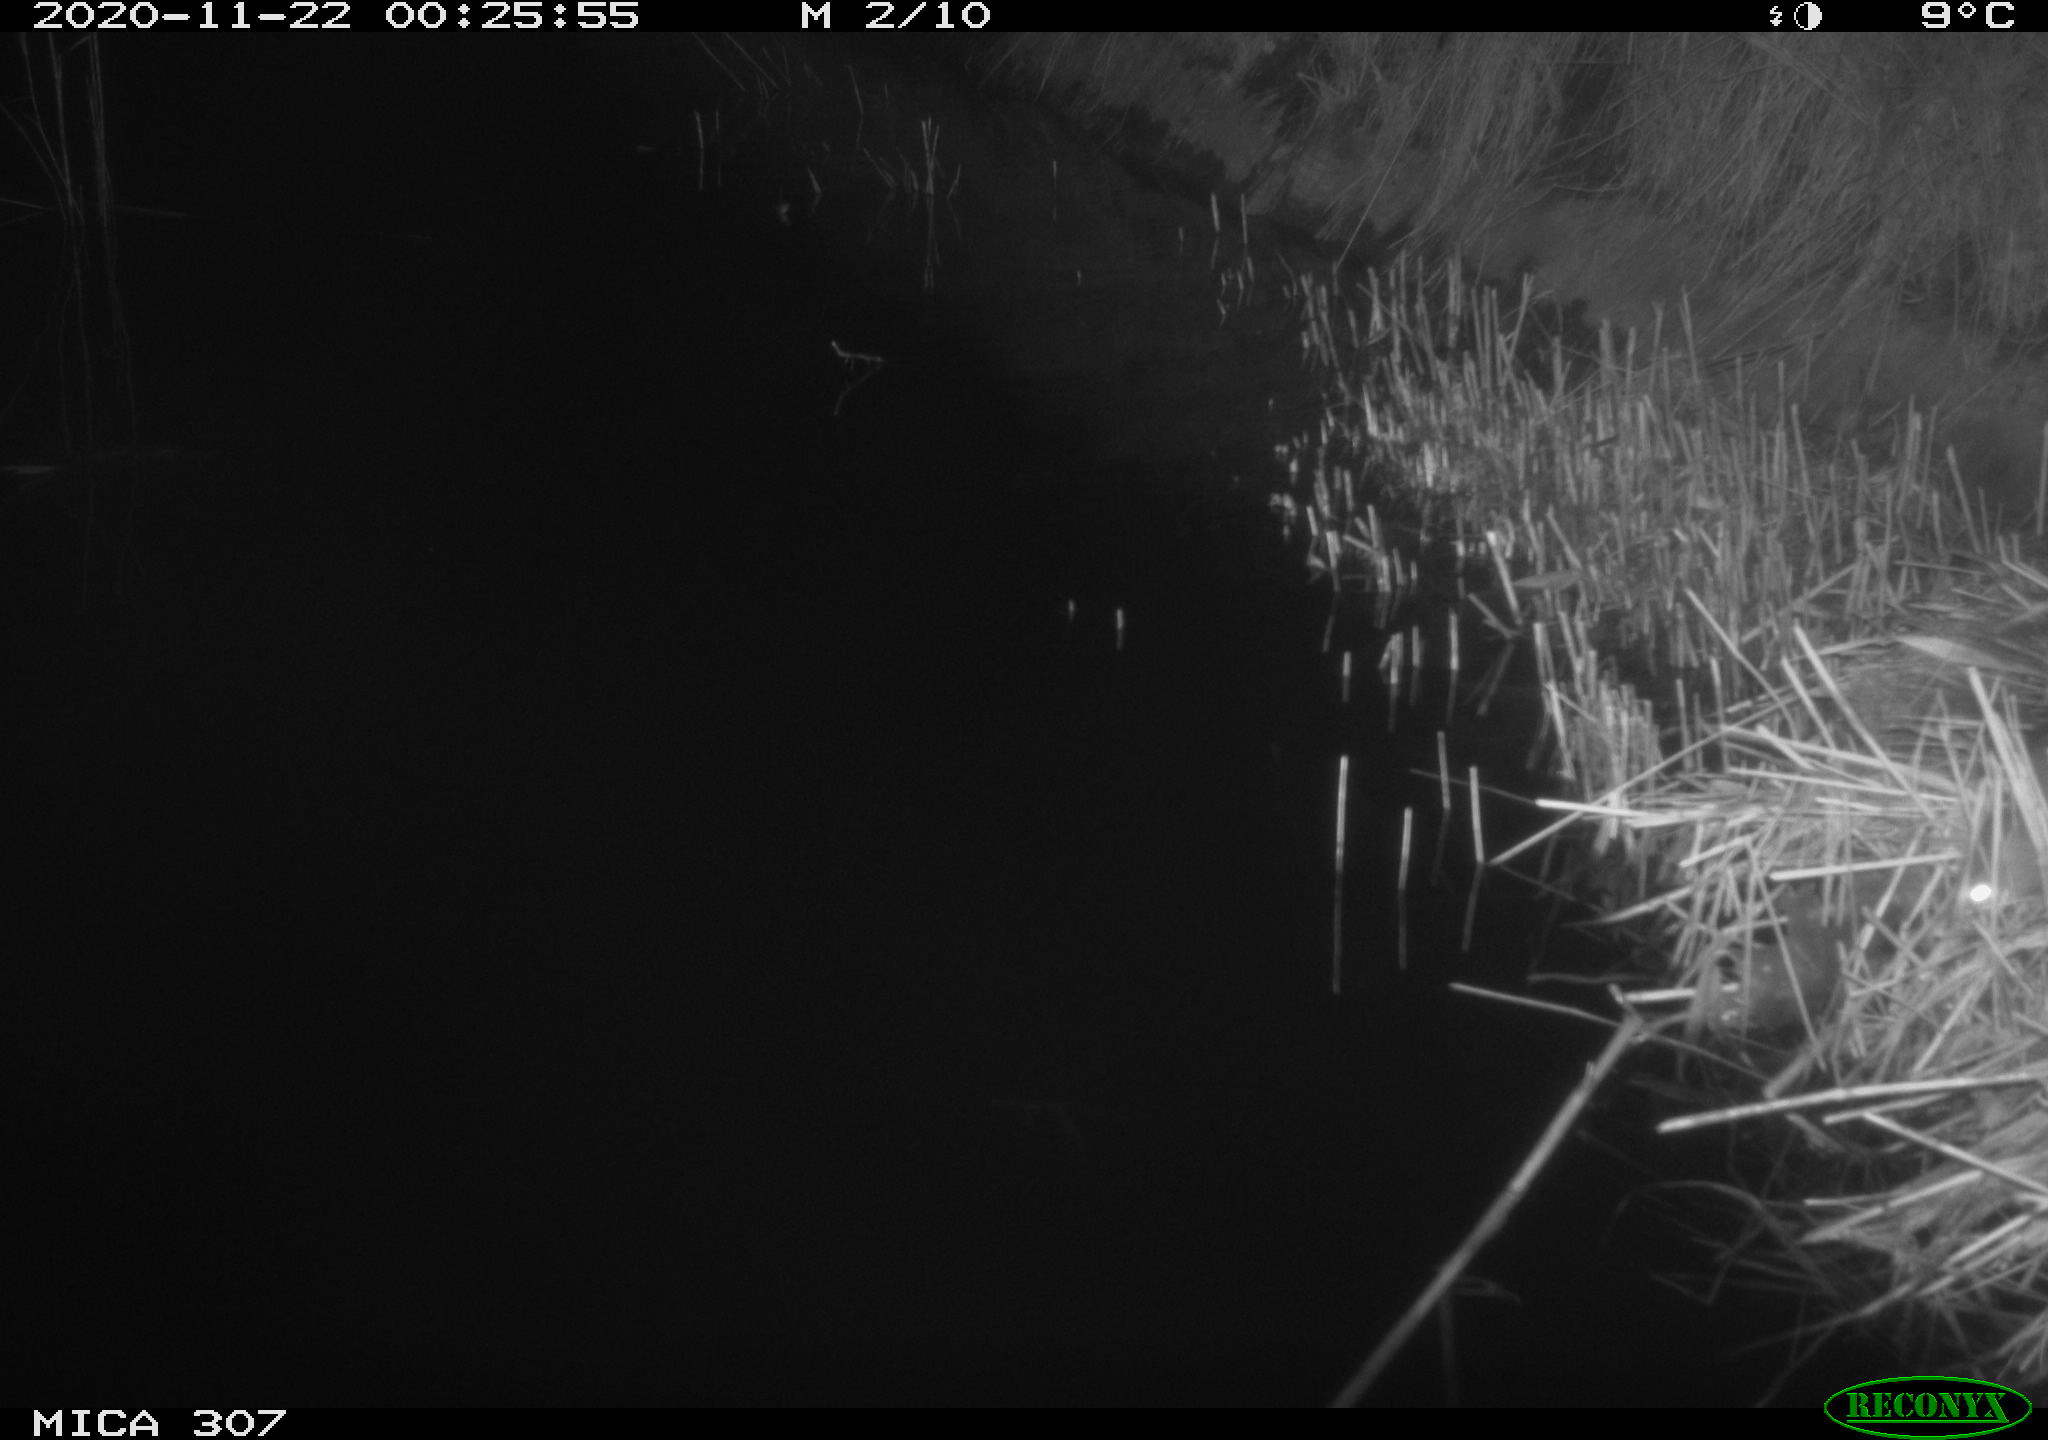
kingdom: Animalia
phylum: Chordata
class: Mammalia
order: Rodentia
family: Muridae
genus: Rattus
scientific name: Rattus norvegicus
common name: Brown rat
